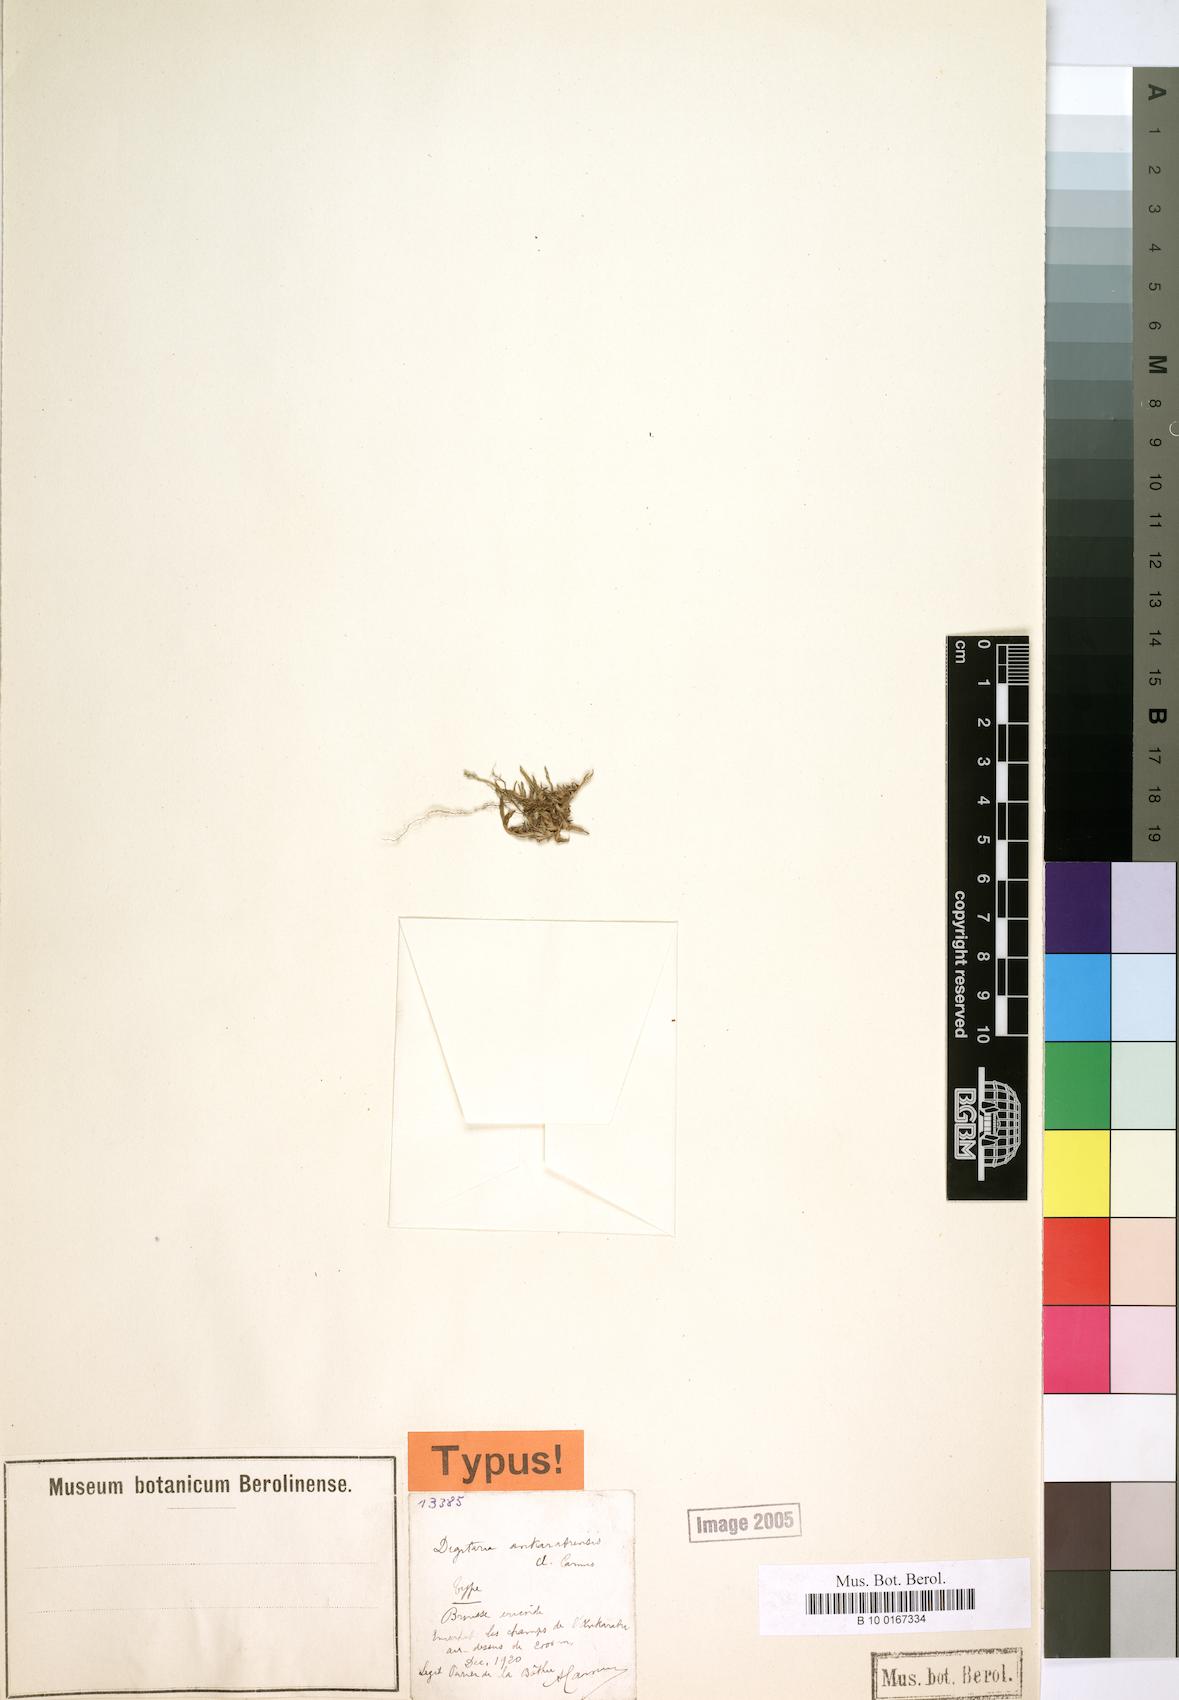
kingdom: Plantae
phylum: Tracheophyta
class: Liliopsida
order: Poales
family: Poaceae
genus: Digitaria
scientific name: Digitaria ankaratrensis
